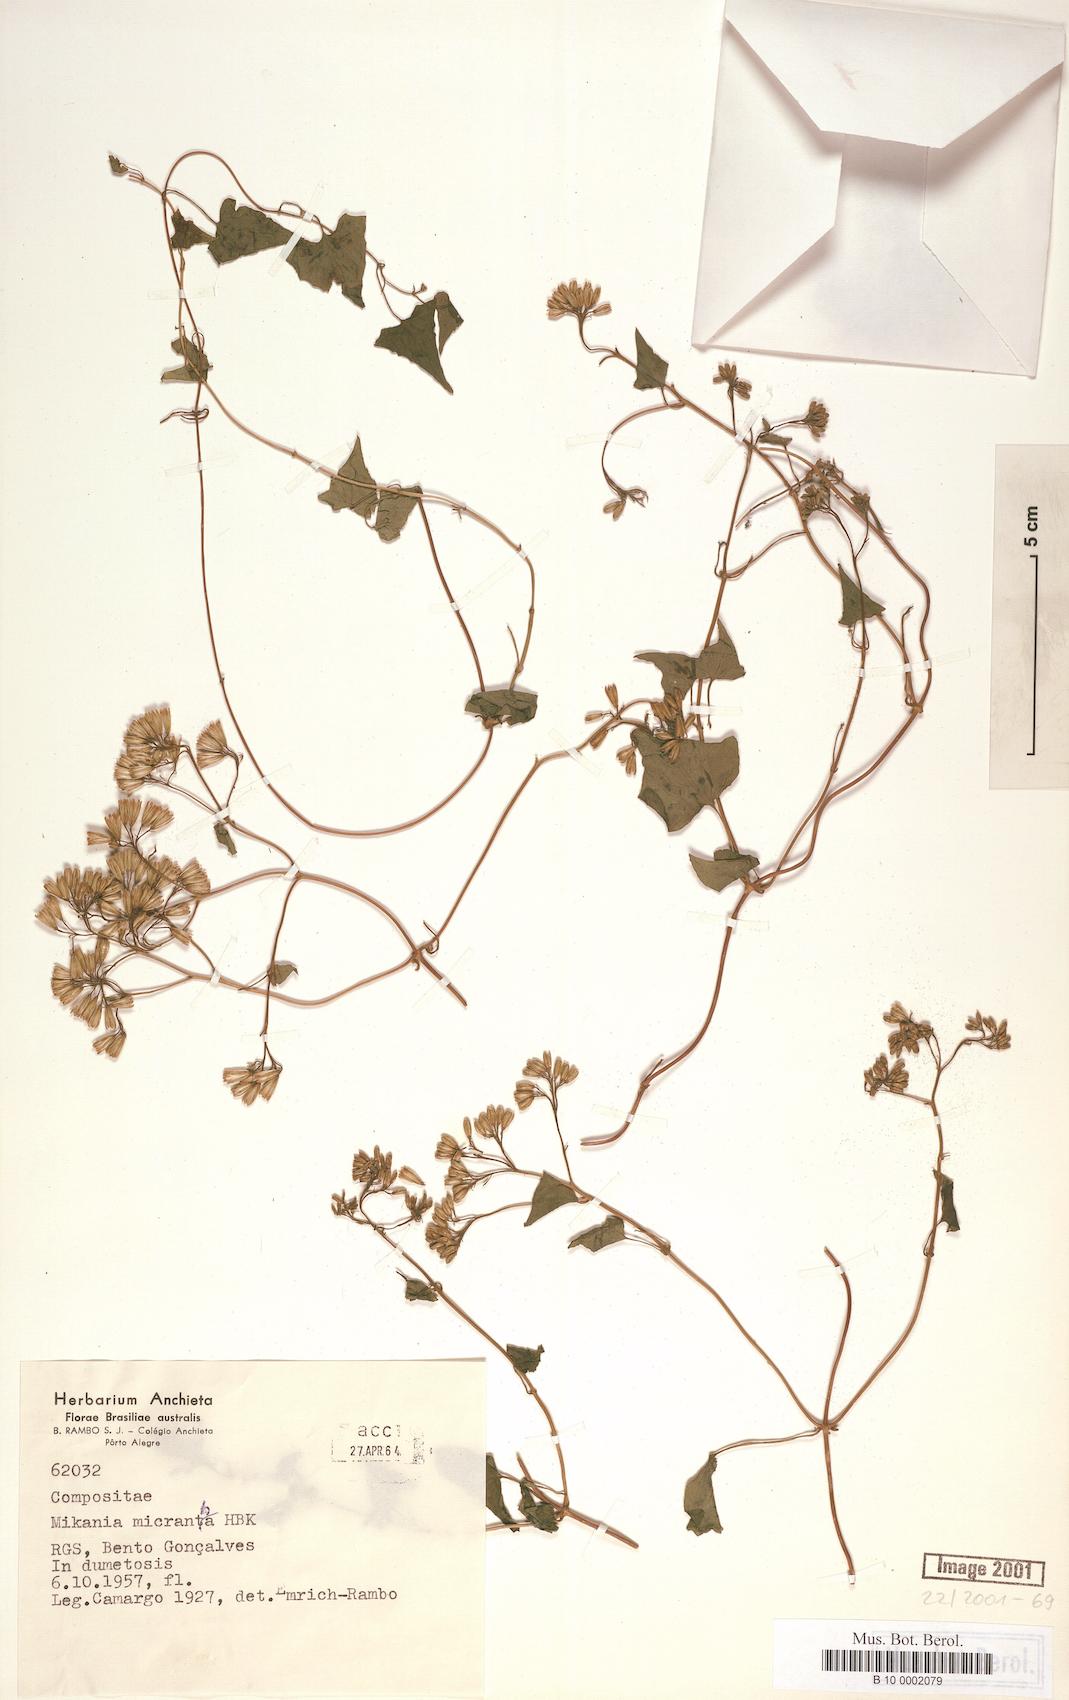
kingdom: Plantae
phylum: Tracheophyta
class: Magnoliopsida
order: Asterales
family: Asteraceae
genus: Mikania
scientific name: Mikania micrantha
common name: Mile-a-minute
